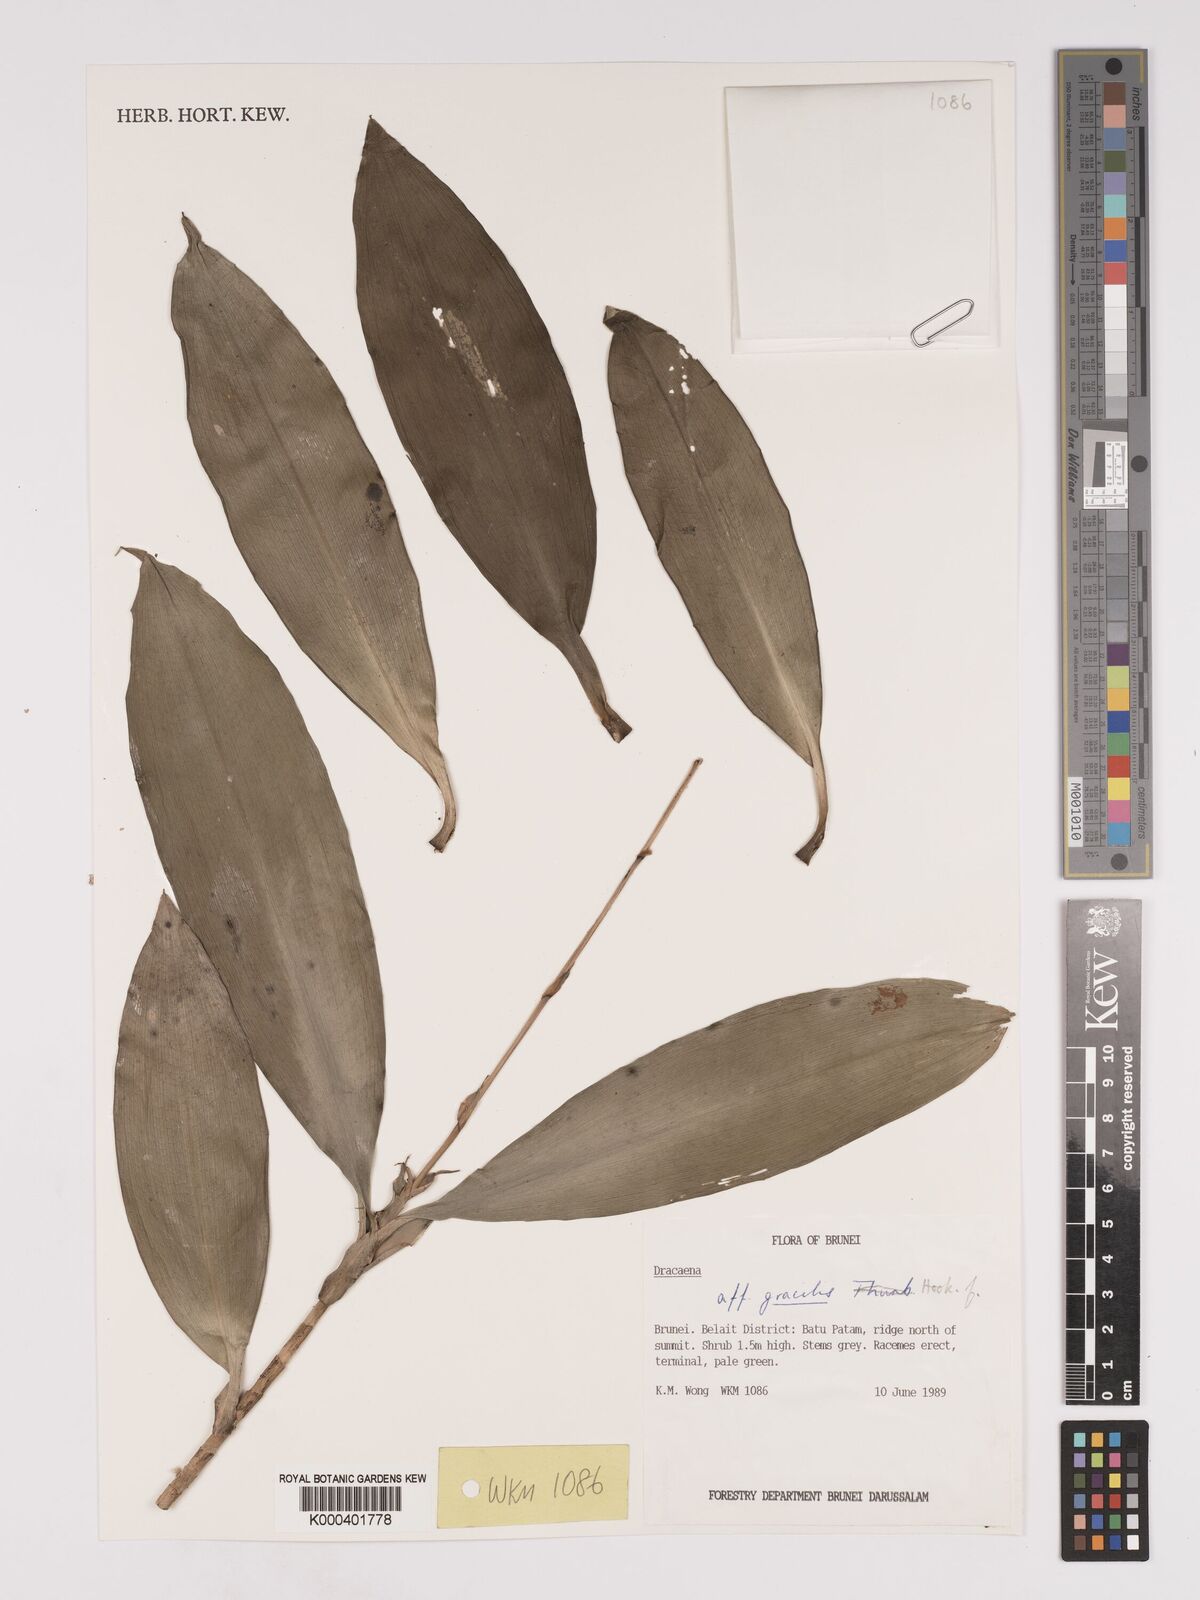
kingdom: Plantae
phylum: Tracheophyta
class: Liliopsida
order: Asparagales
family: Asparagaceae
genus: Dracaena
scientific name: Dracaena
